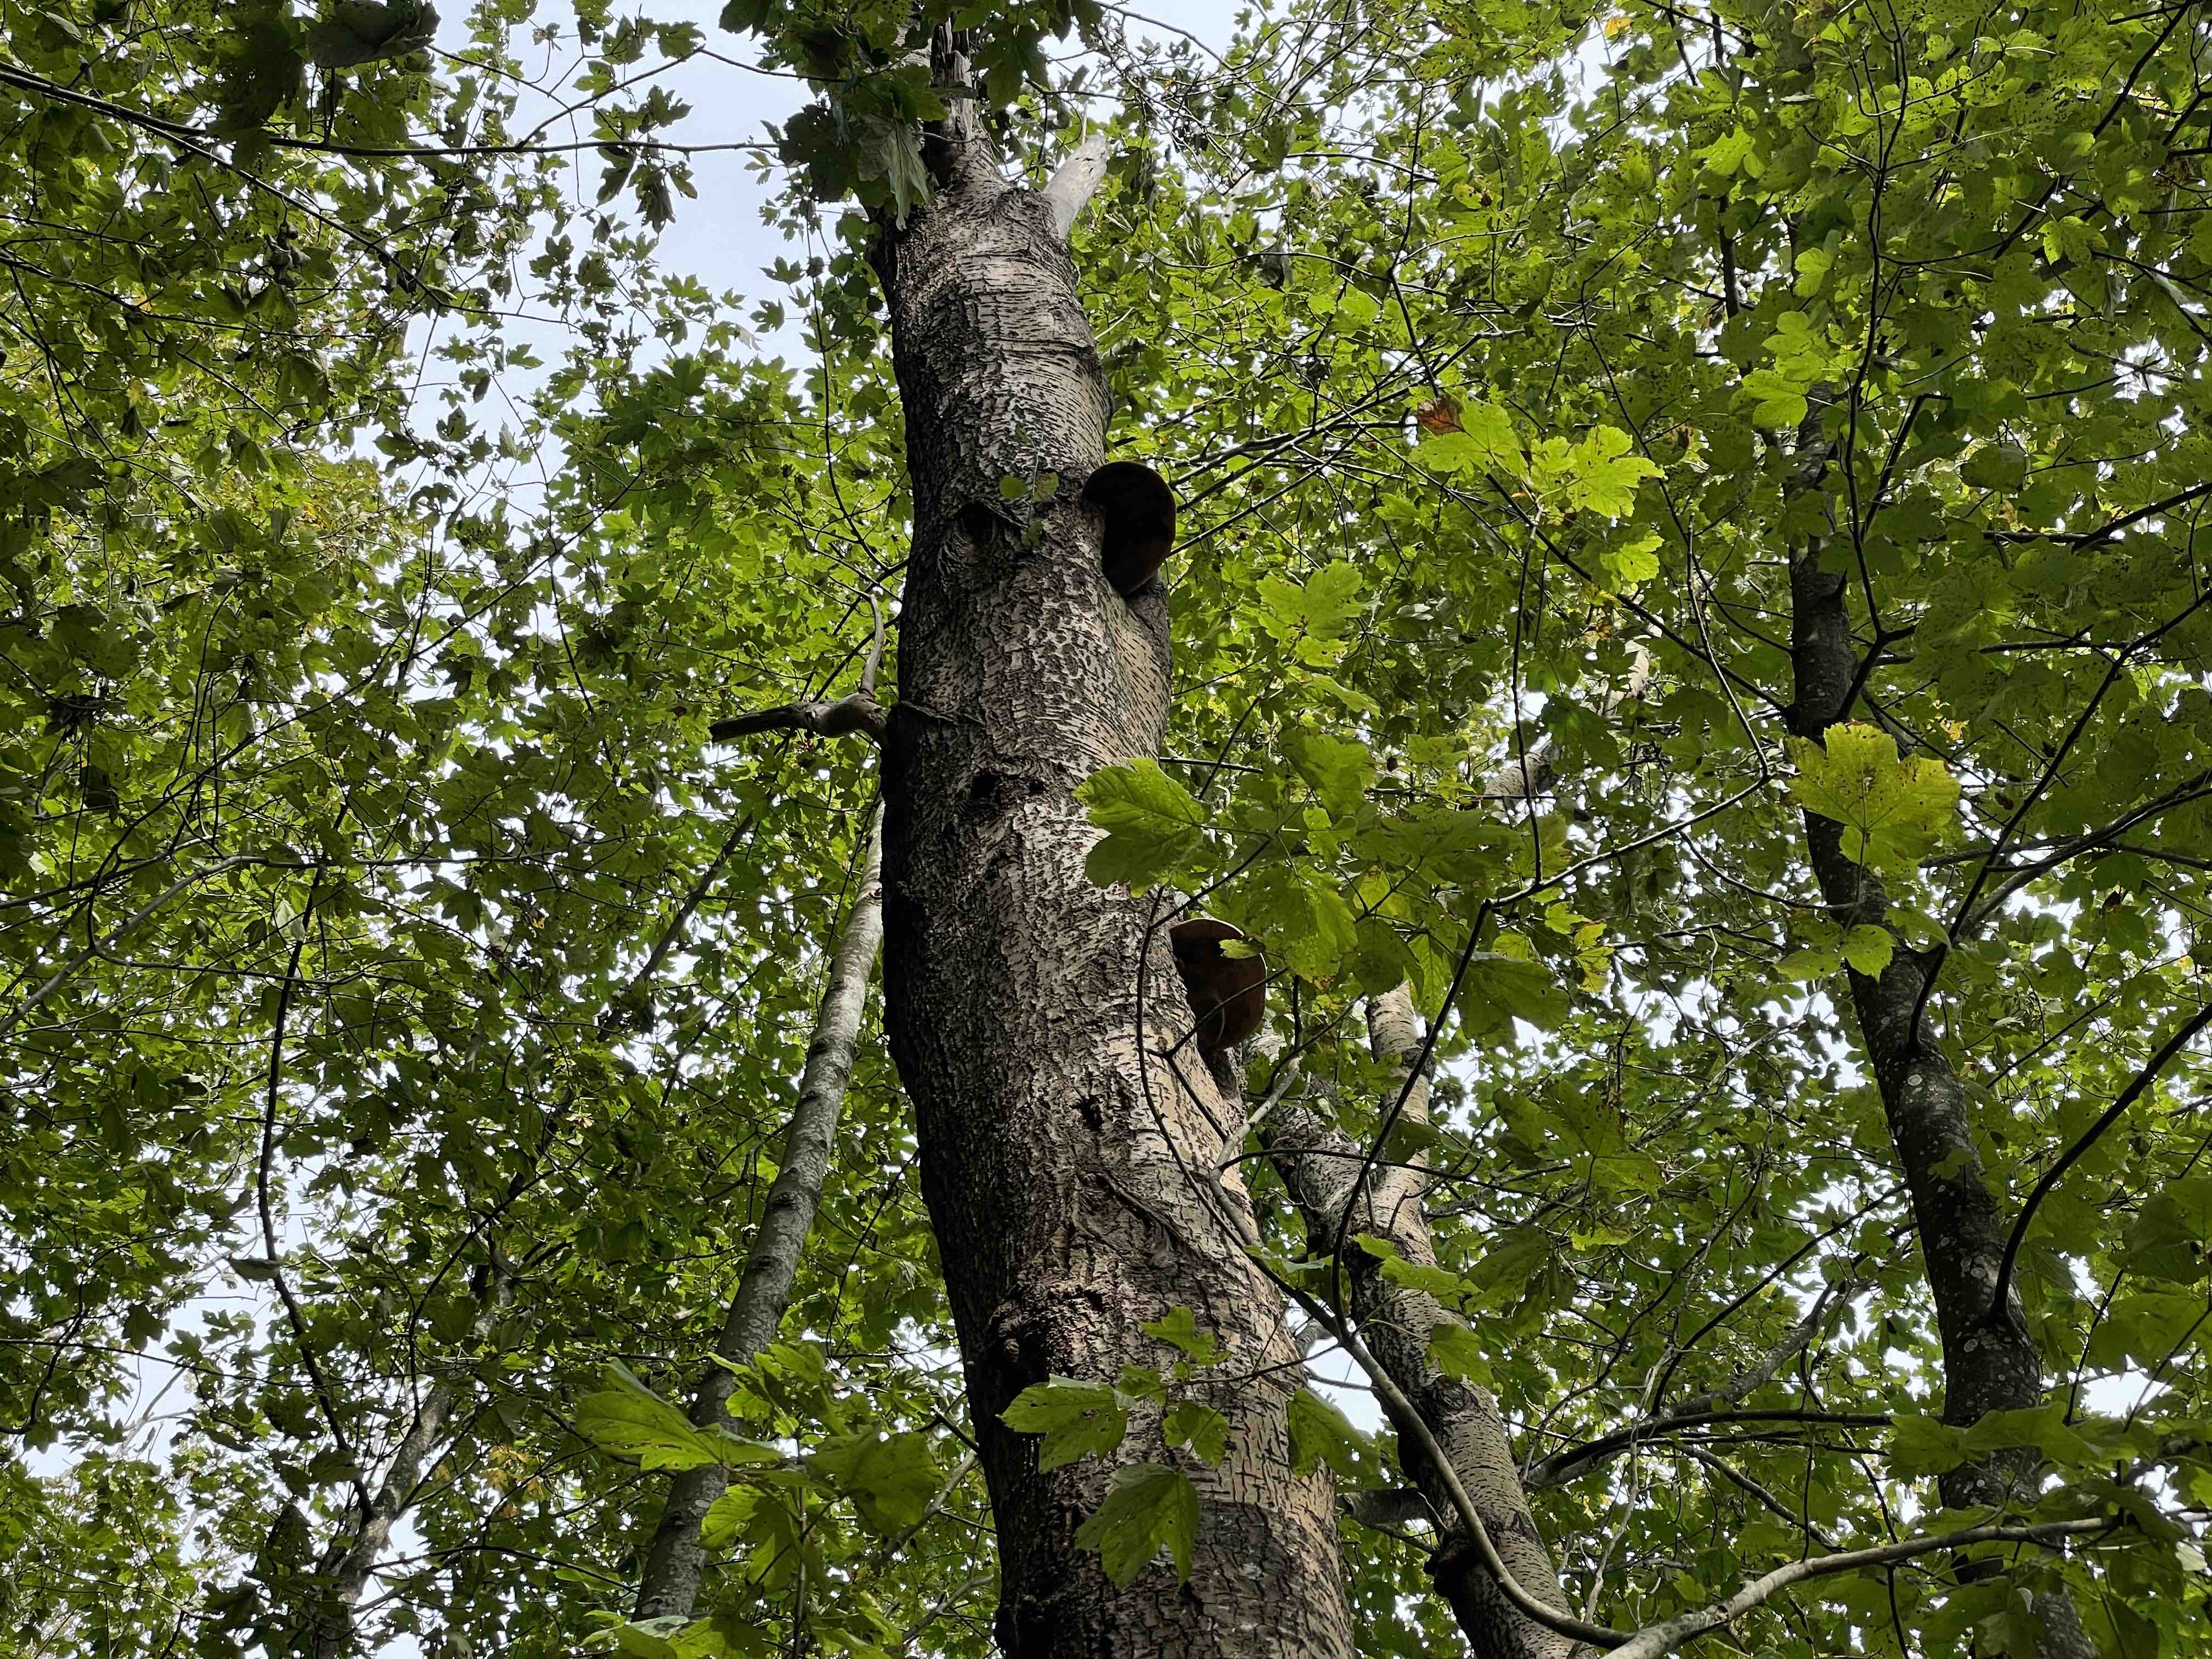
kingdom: Fungi
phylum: Basidiomycota
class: Agaricomycetes
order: Hymenochaetales
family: Hymenochaetaceae
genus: Phellinus
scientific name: Phellinus populicola
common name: poppel-ildporesvamp
